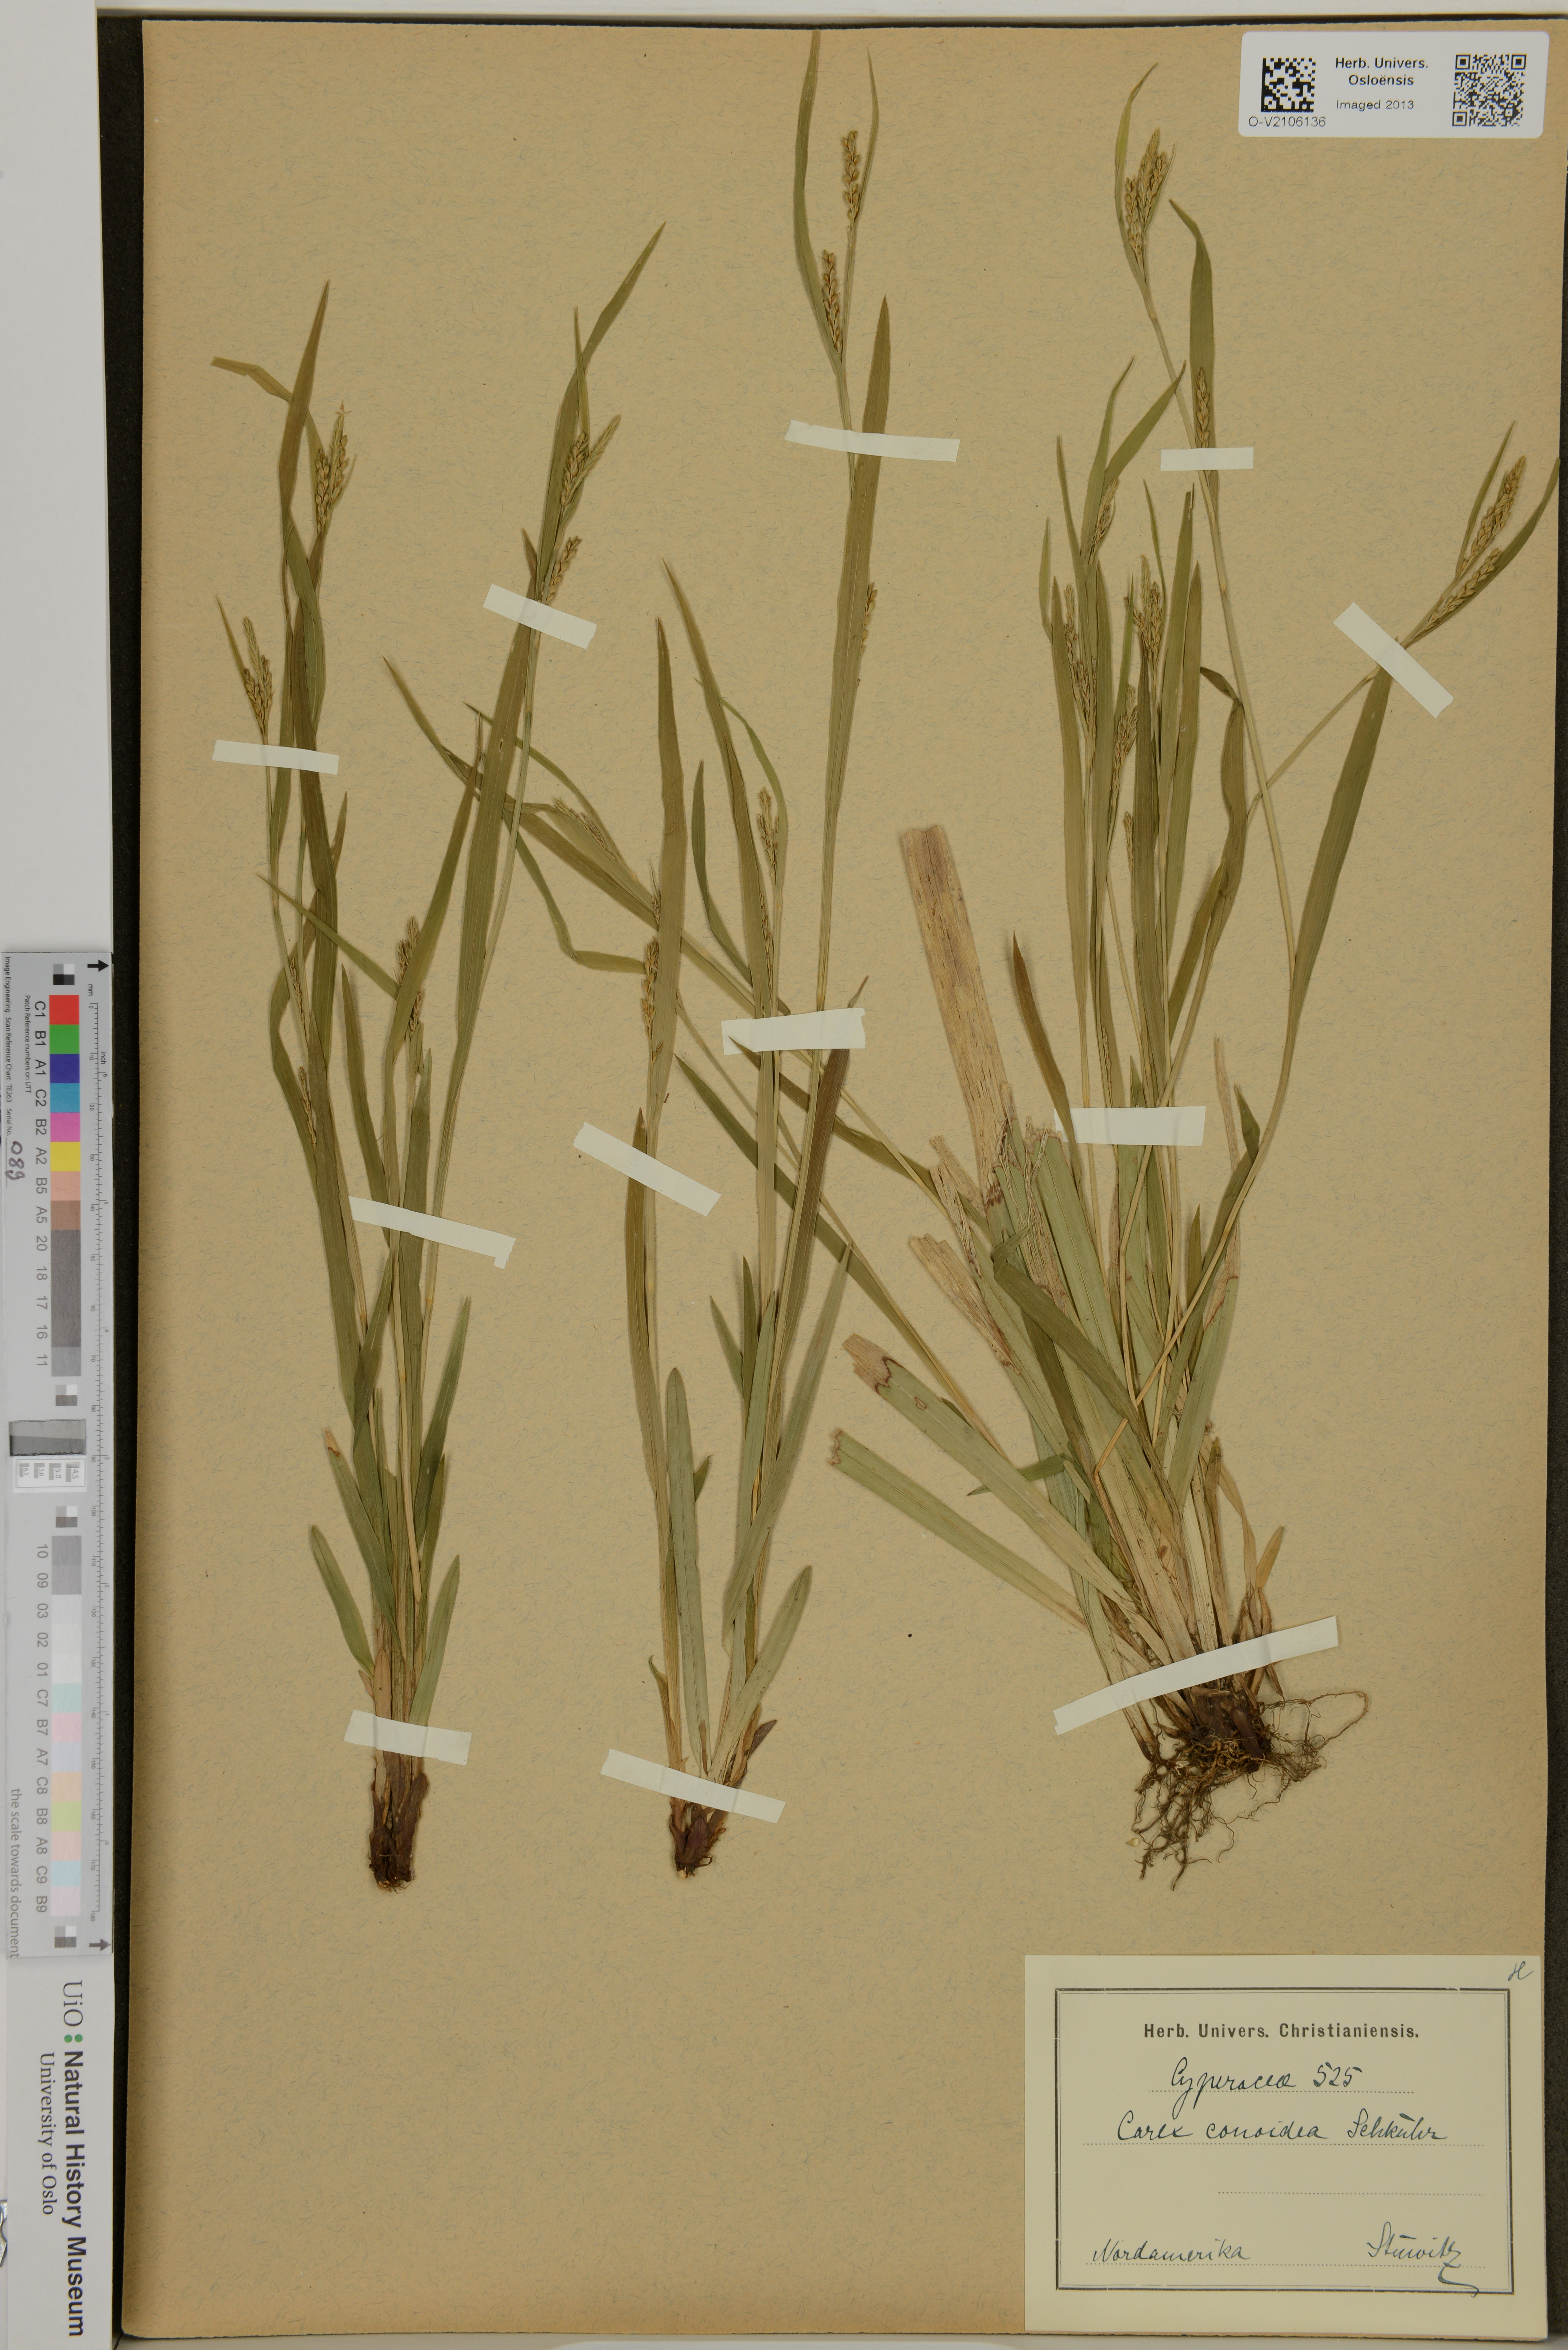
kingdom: Plantae
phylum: Tracheophyta
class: Liliopsida
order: Poales
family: Cyperaceae
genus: Carex
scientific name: Carex conoidea
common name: Cone shaped sedge
